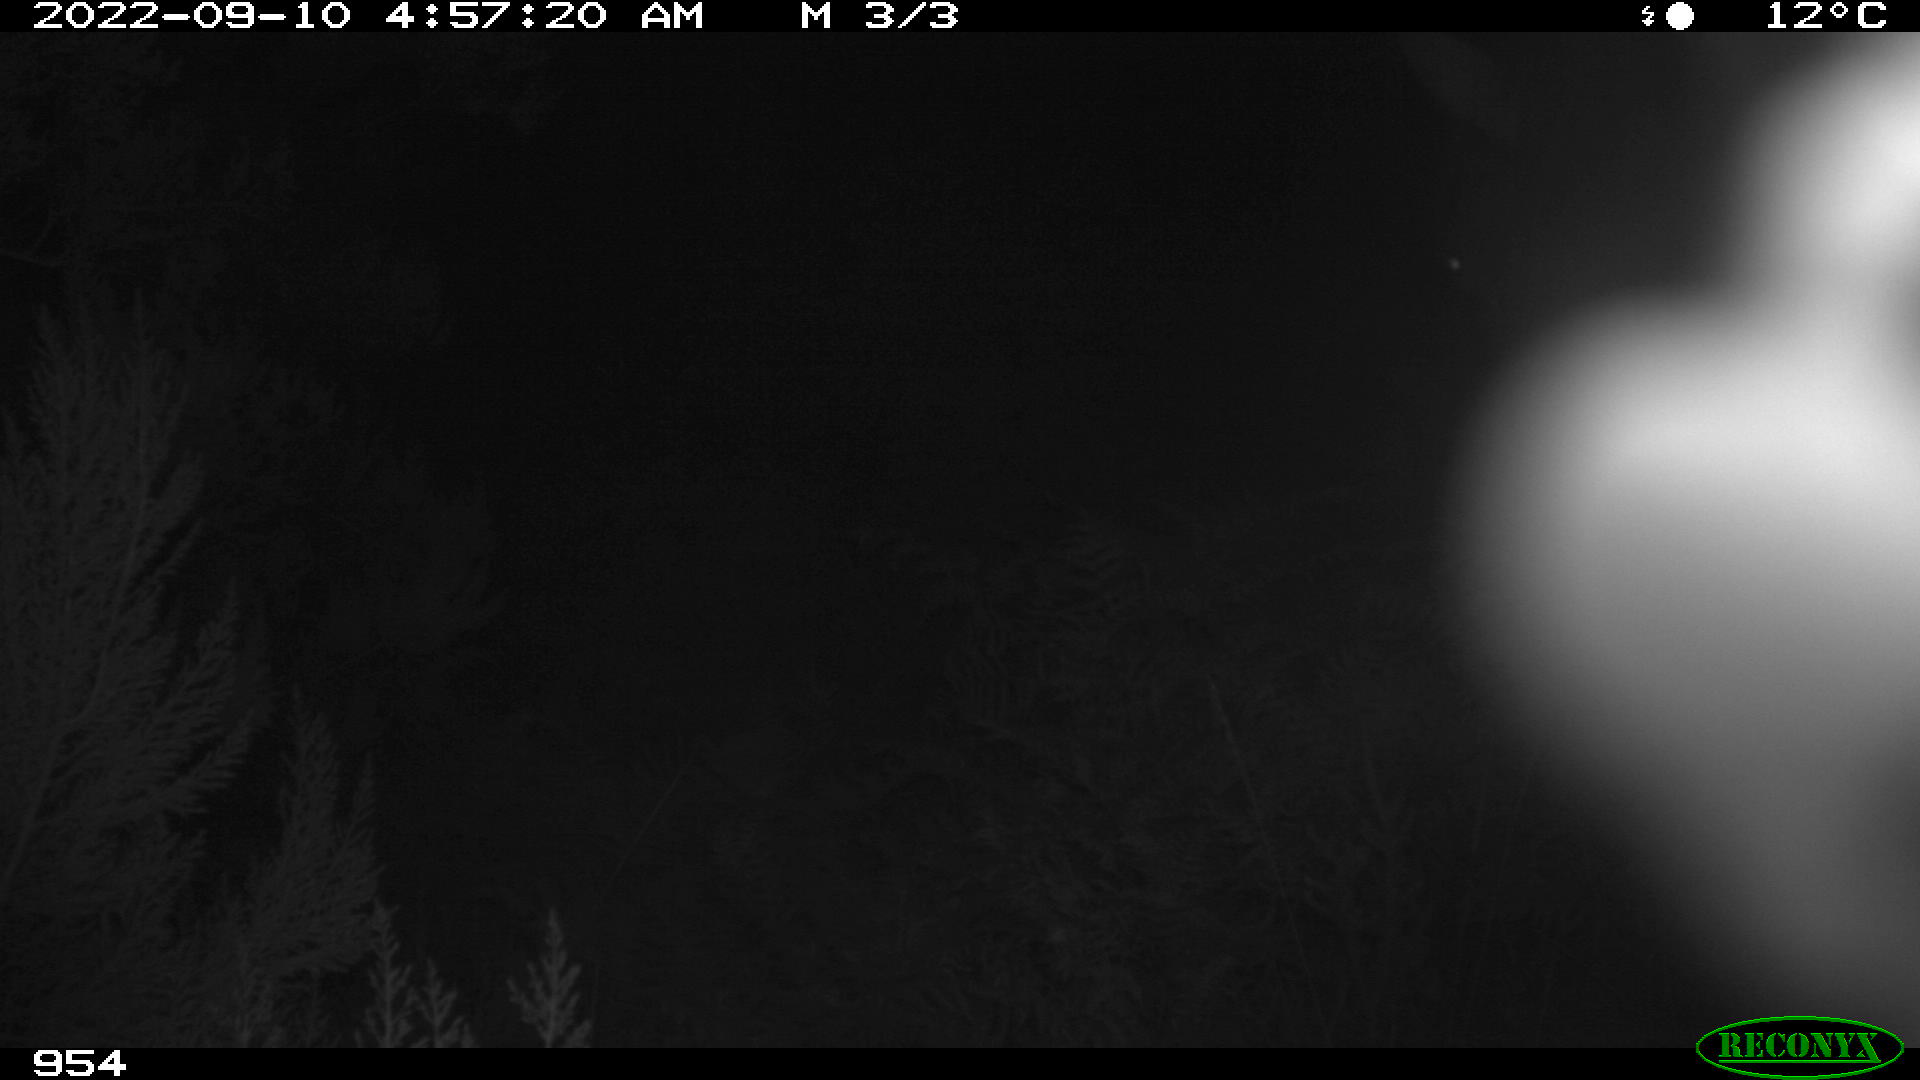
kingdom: Animalia
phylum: Chordata
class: Mammalia
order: Perissodactyla
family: Equidae
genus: Equus
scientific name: Equus caballus
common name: Horse
